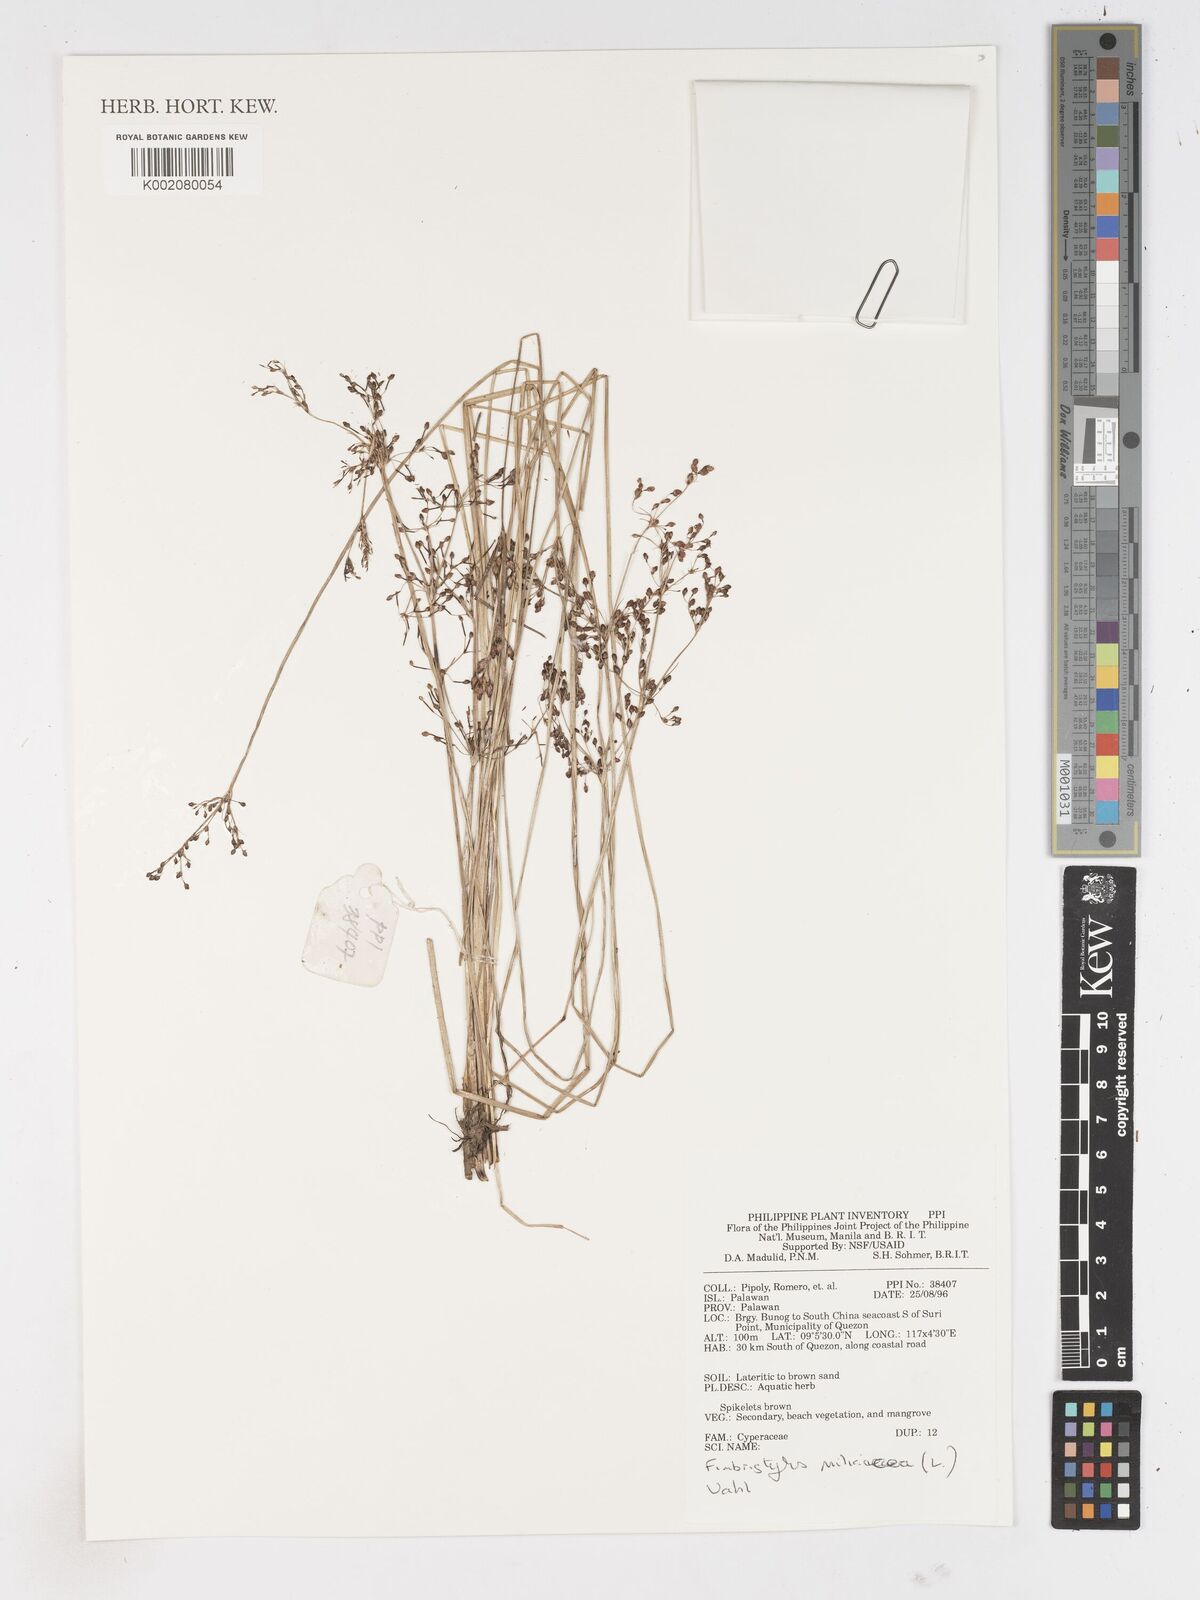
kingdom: Plantae
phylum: Tracheophyta
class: Liliopsida
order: Poales
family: Cyperaceae
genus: Fimbristylis
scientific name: Fimbristylis quinquangularis
